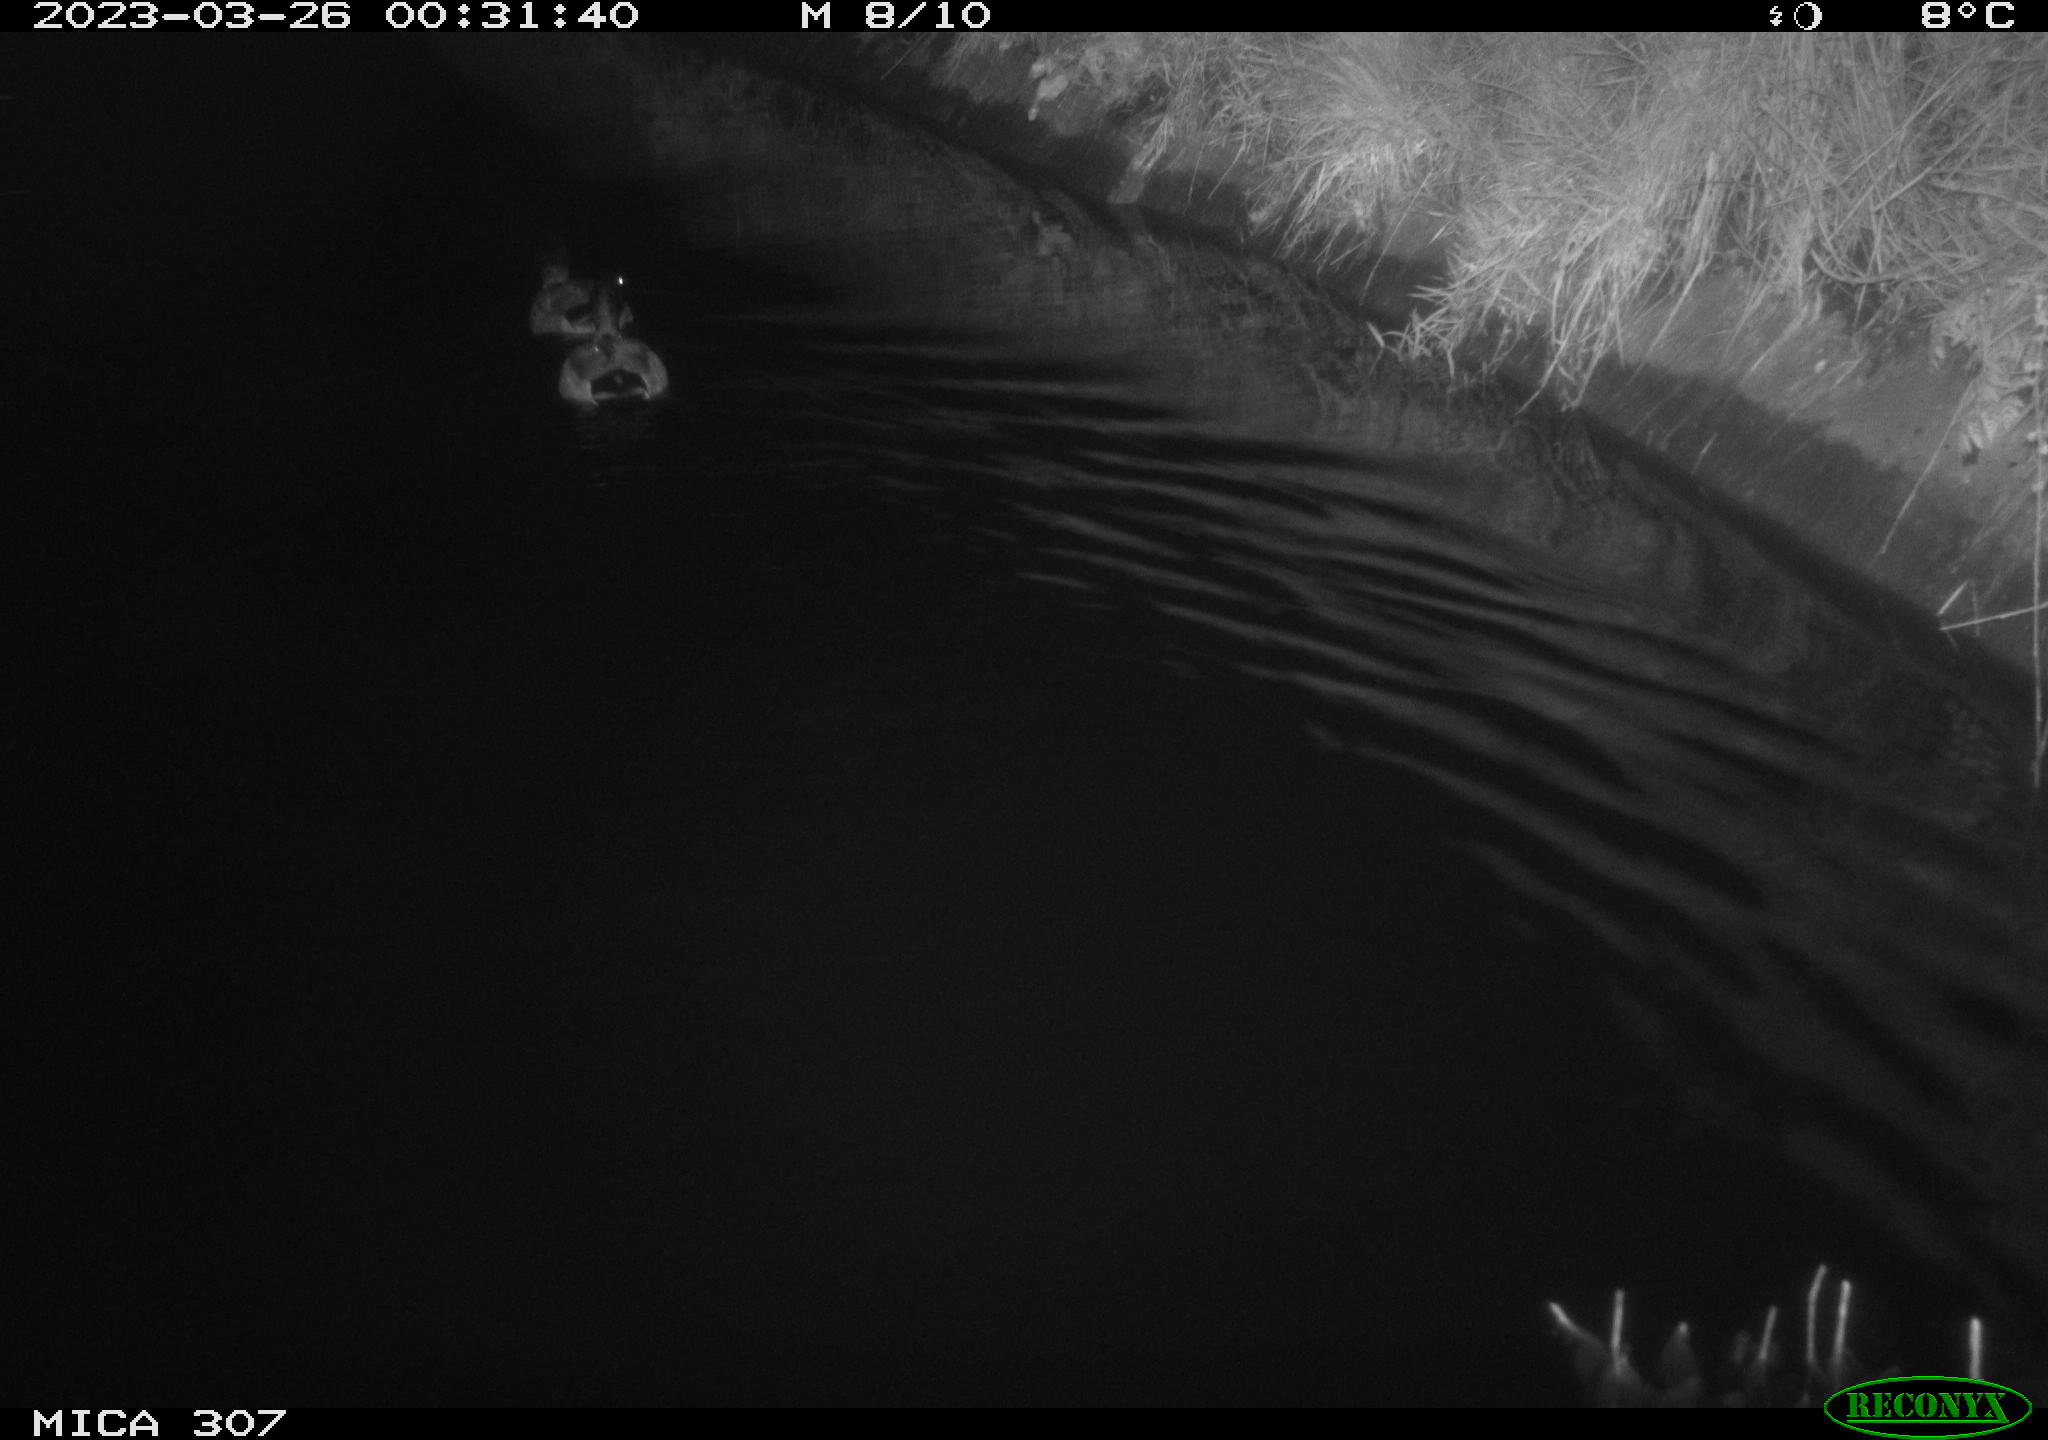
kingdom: Animalia
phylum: Chordata
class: Aves
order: Anseriformes
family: Anatidae
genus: Anas
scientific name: Anas
